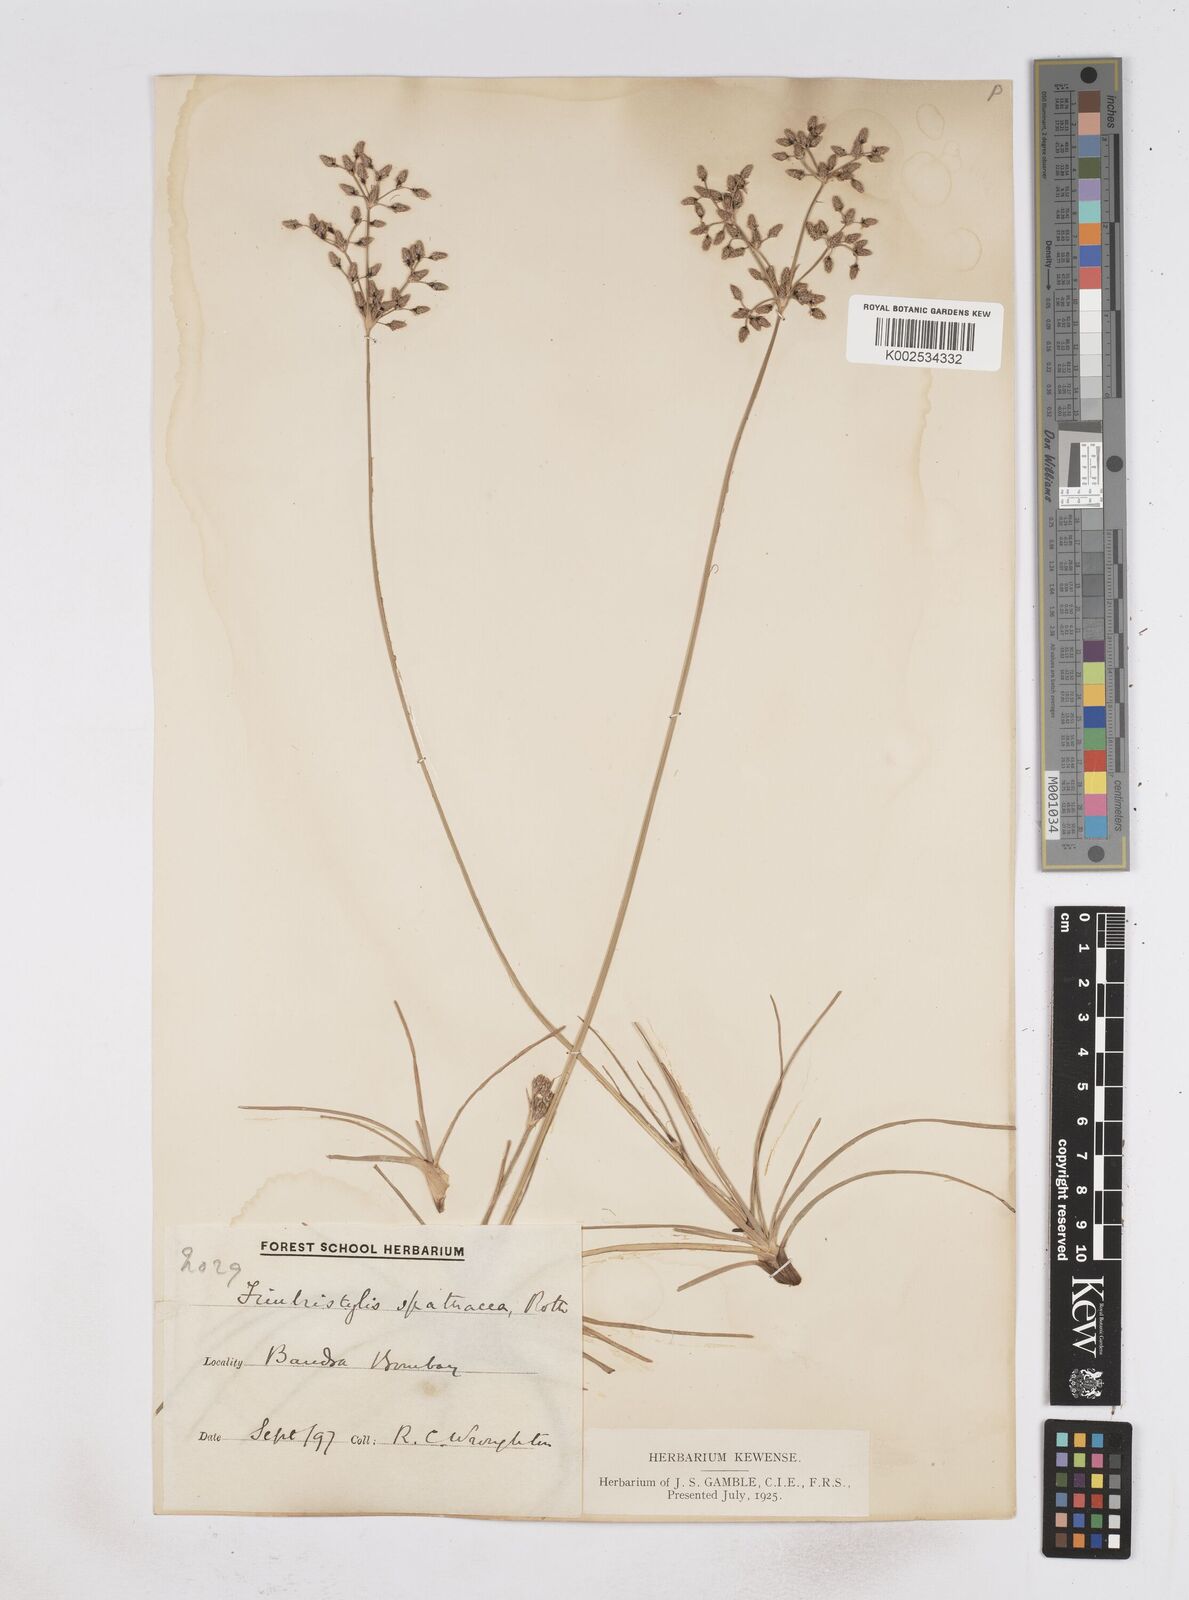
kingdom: Plantae
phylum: Tracheophyta
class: Liliopsida
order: Poales
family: Cyperaceae
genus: Fimbristylis
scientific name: Fimbristylis cymosa
